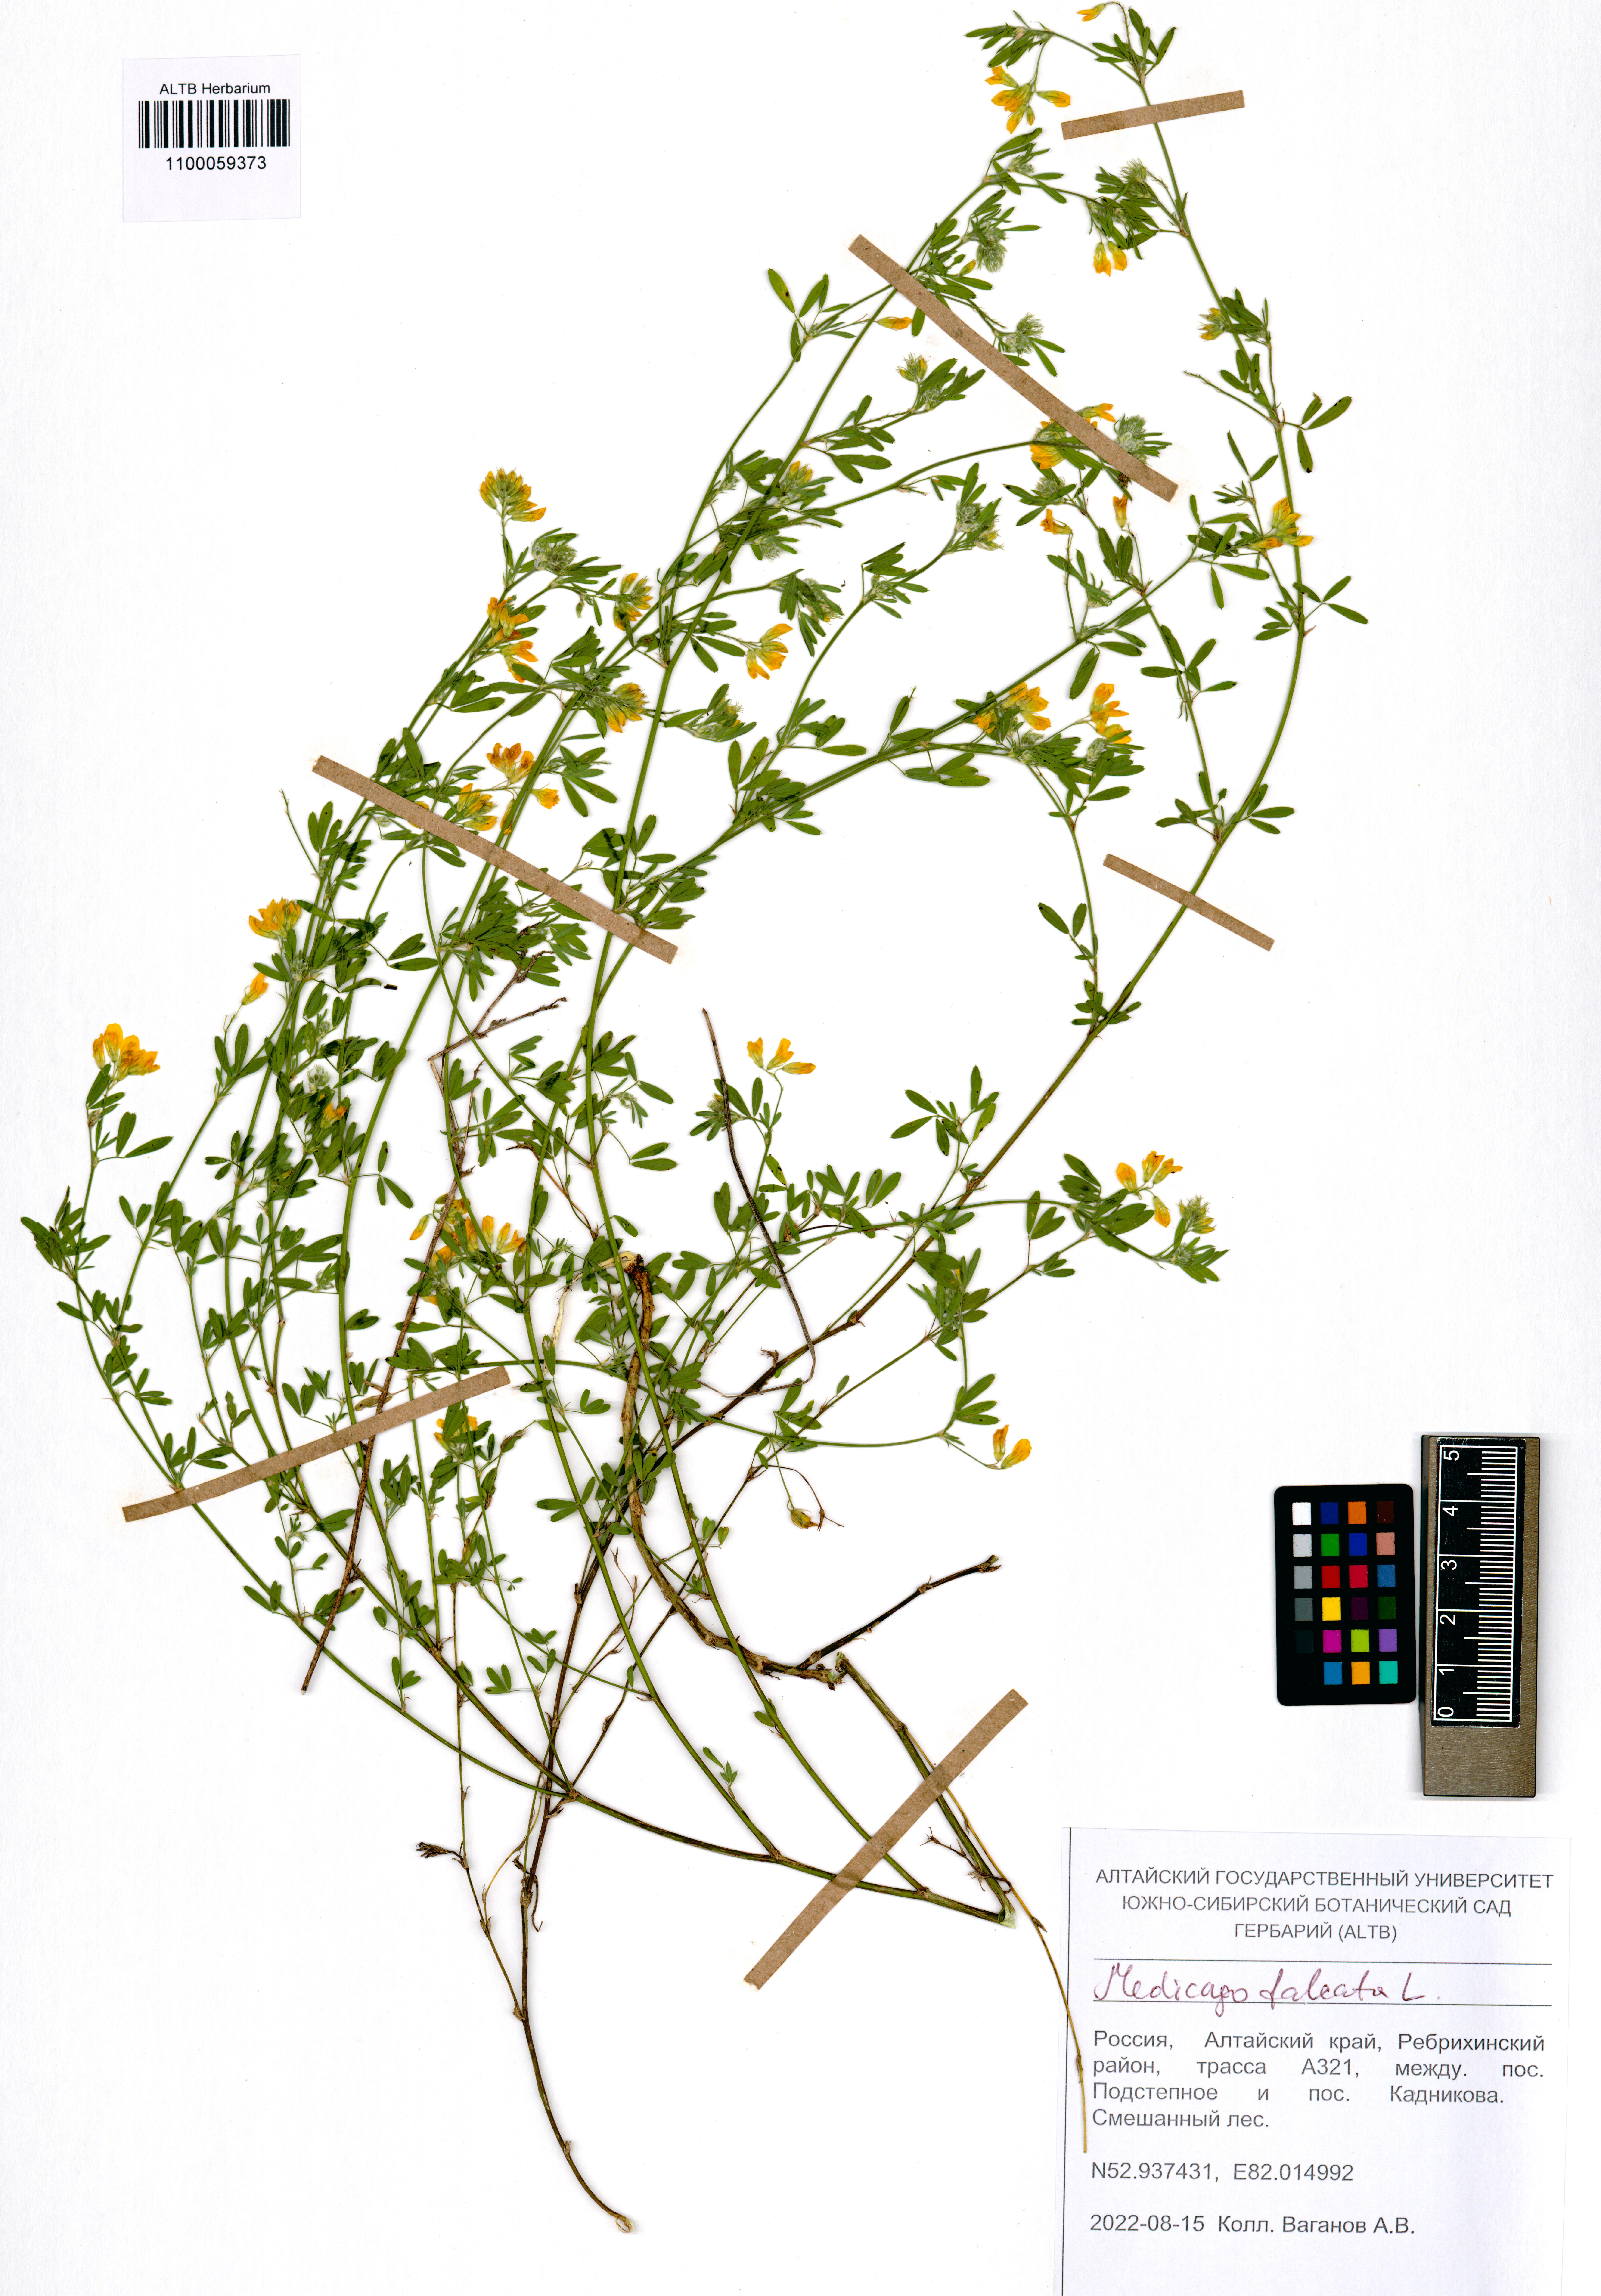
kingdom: Plantae
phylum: Tracheophyta
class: Magnoliopsida
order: Fabales
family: Fabaceae
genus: Medicago
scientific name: Medicago falcata
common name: Sickle medick
